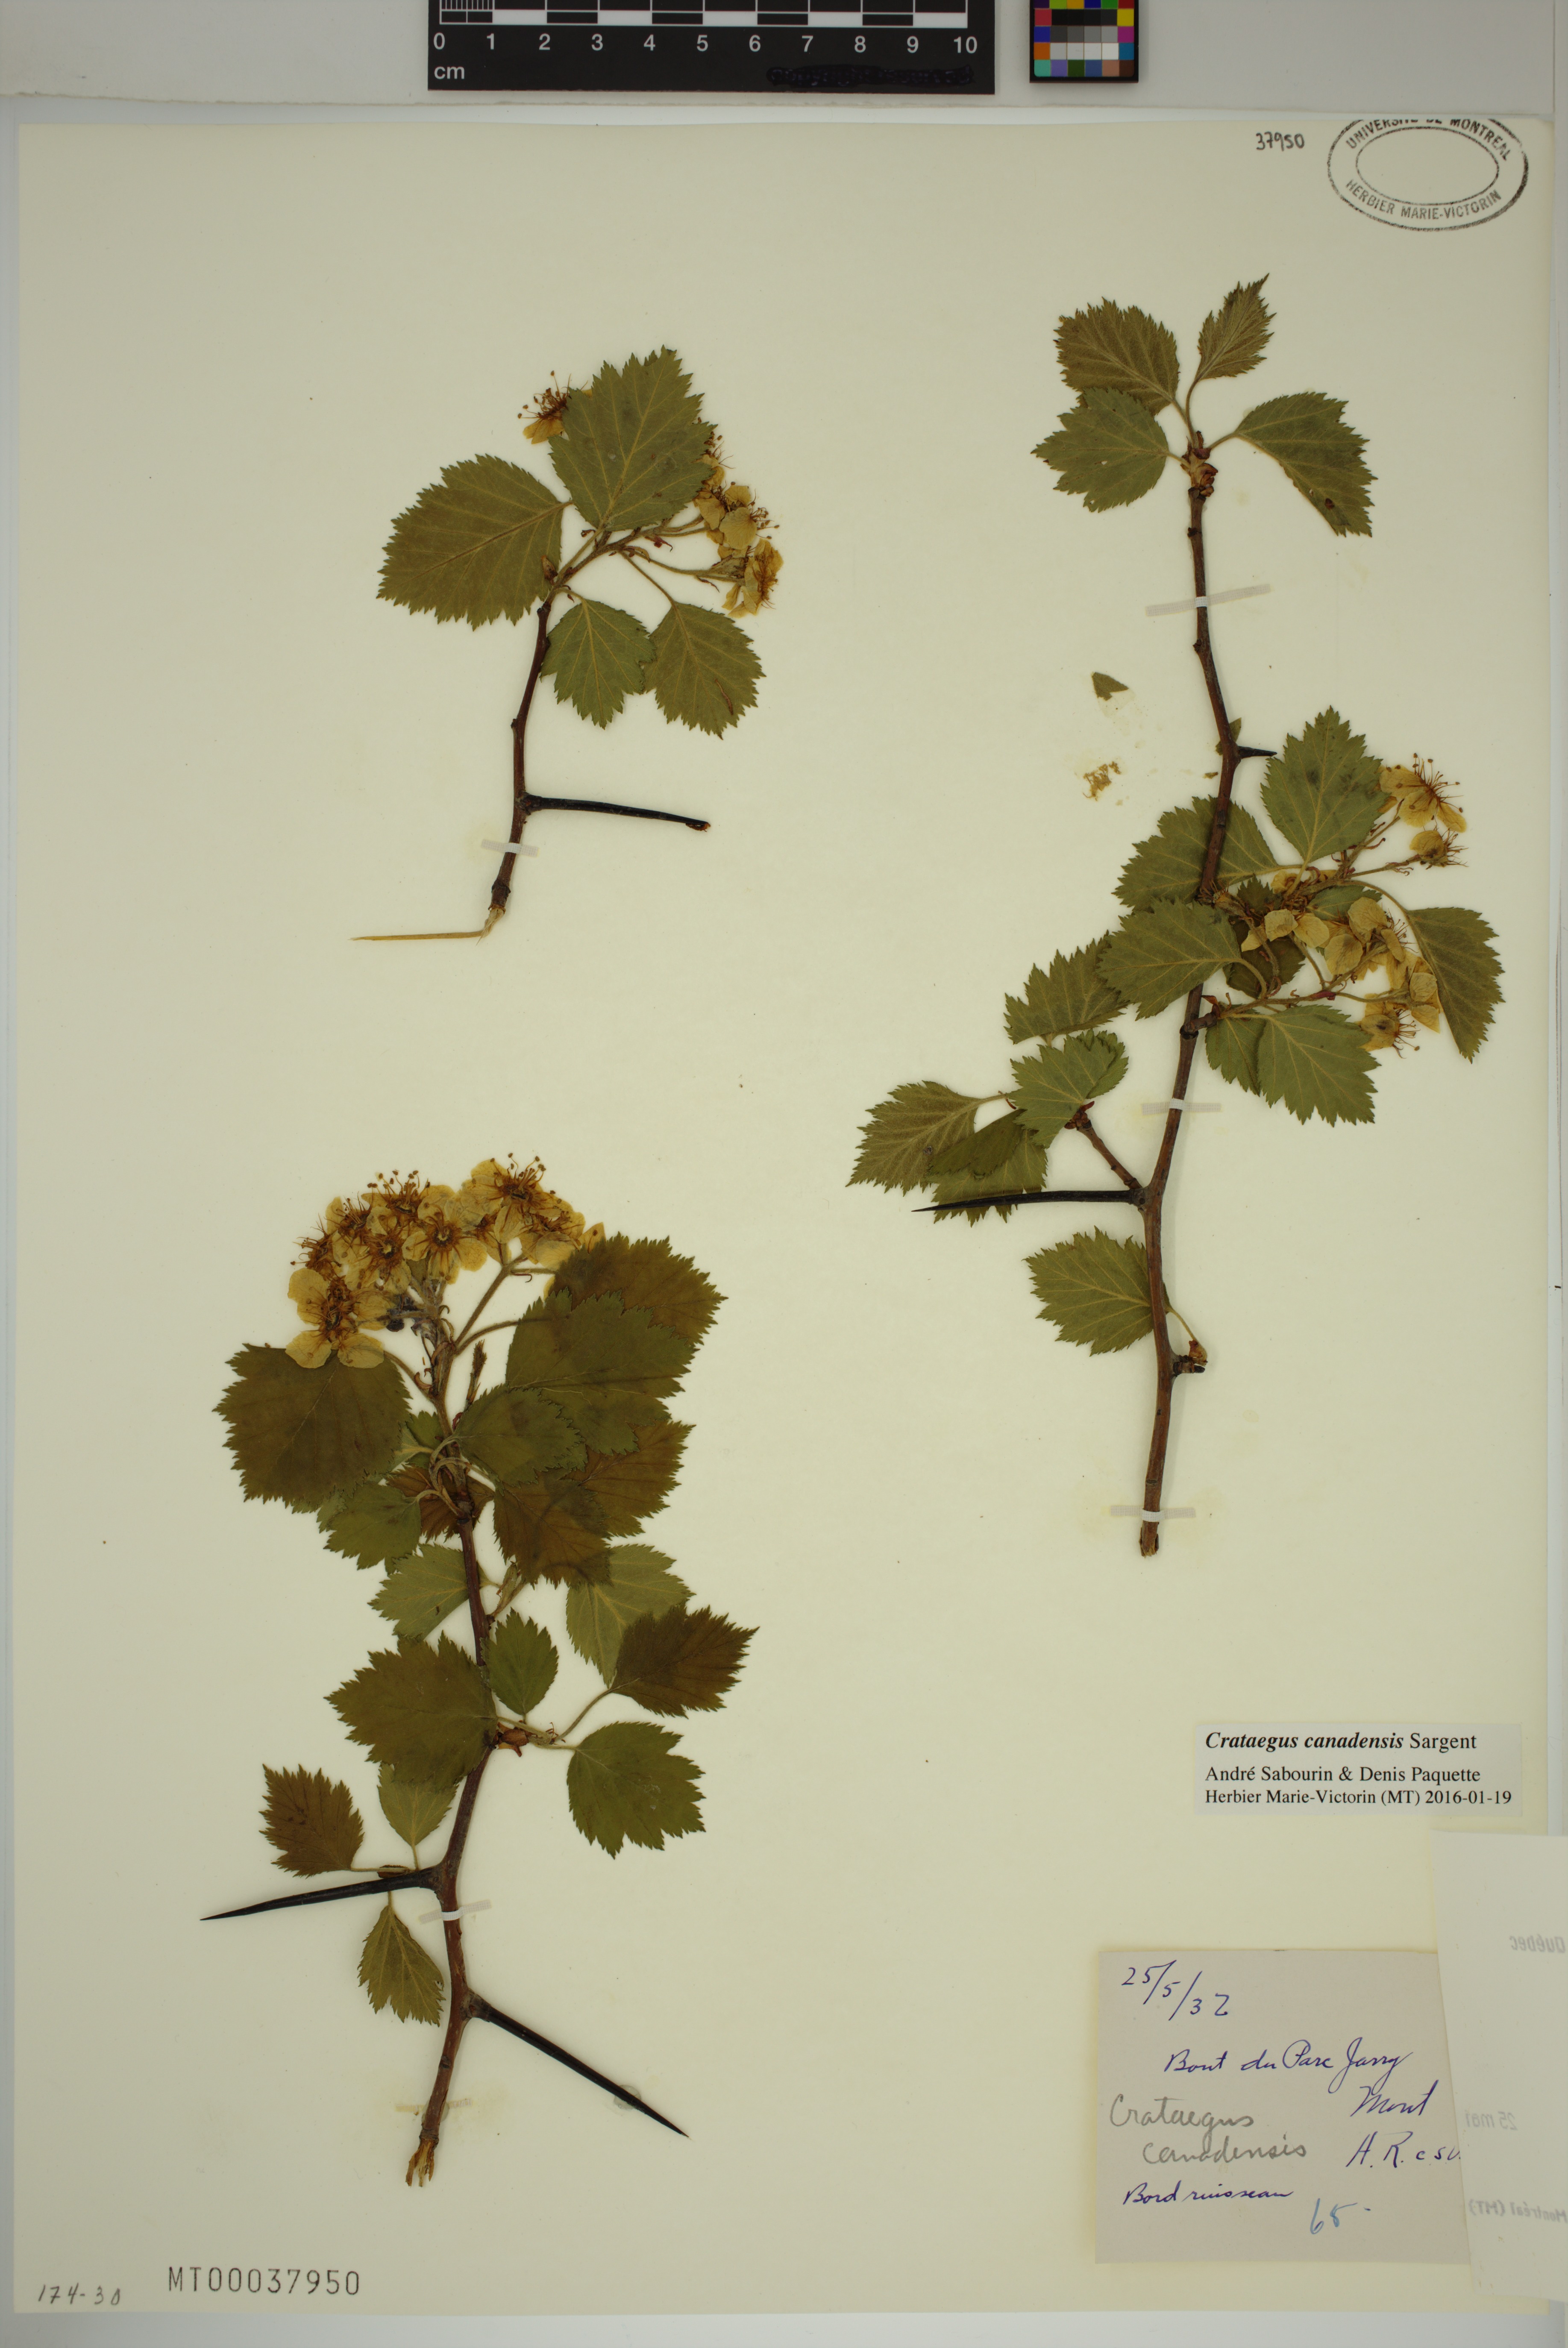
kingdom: Plantae
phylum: Tracheophyta
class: Magnoliopsida
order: Rosales
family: Rosaceae
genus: Crataegus
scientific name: Crataegus submollis
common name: Hairy cockspurthorn
